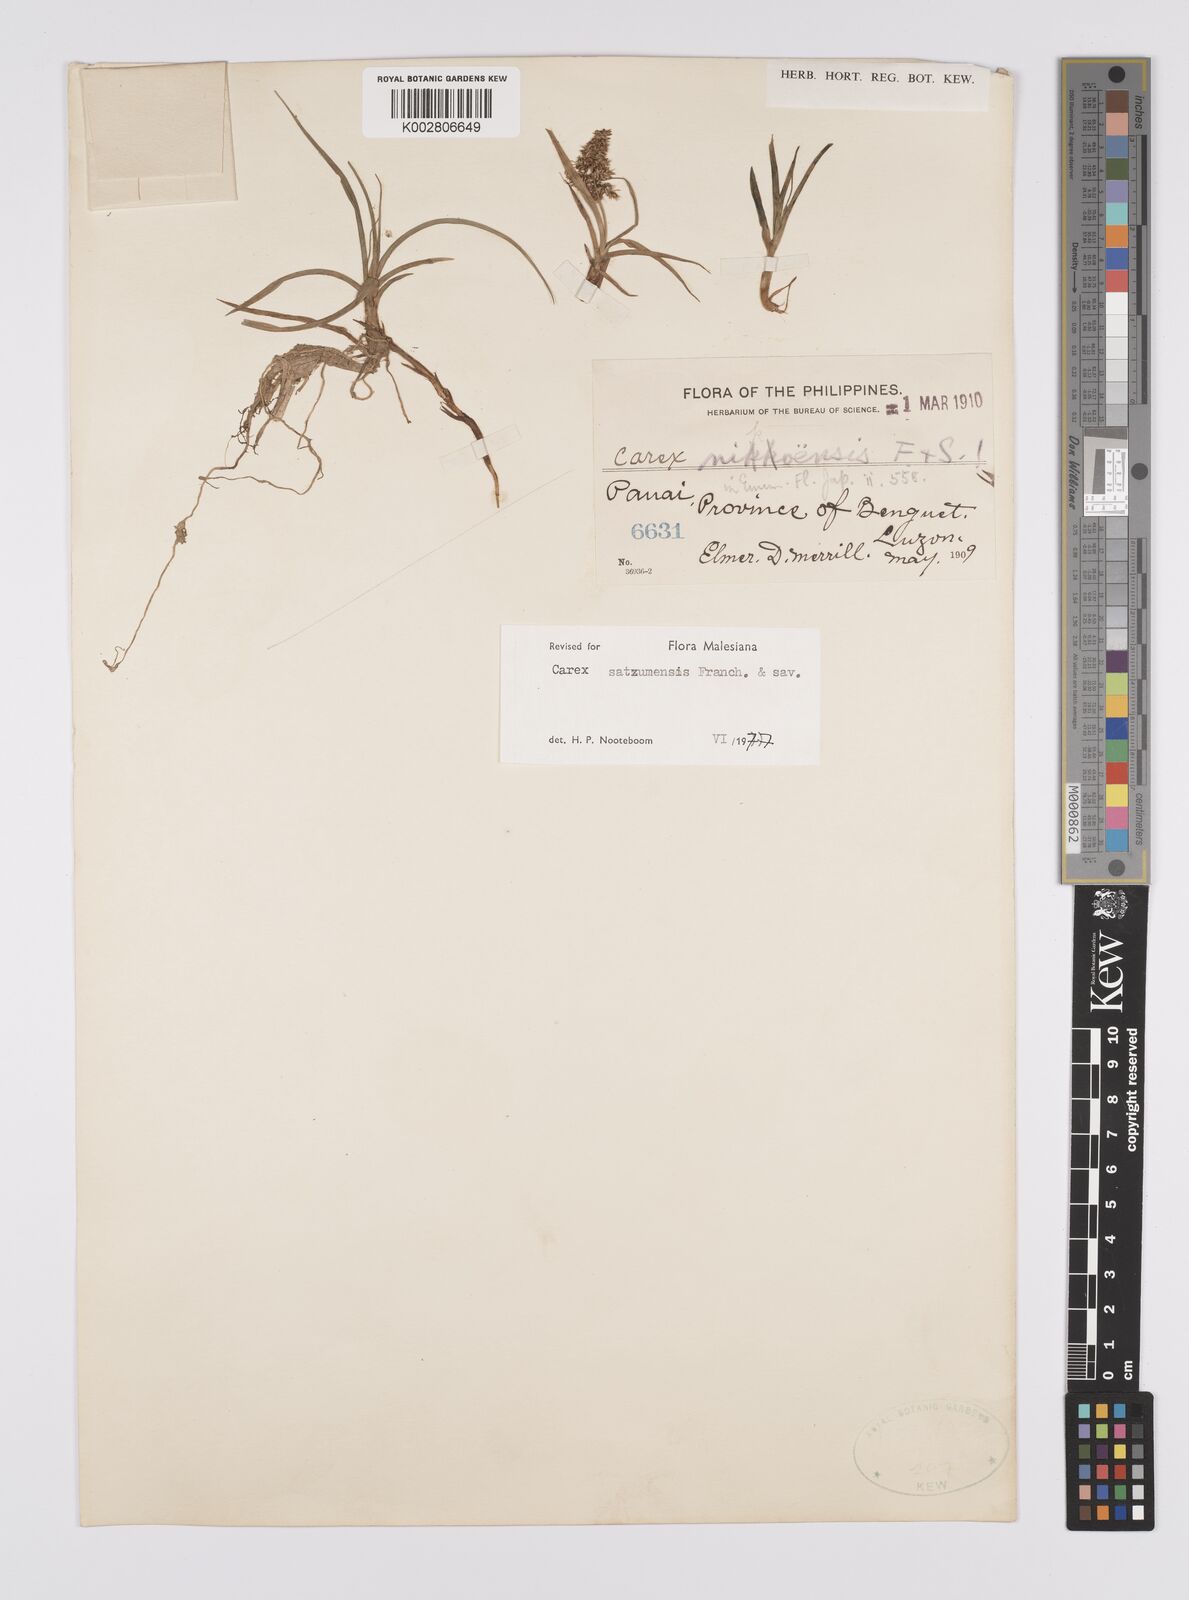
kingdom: Plantae
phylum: Tracheophyta
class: Liliopsida
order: Poales
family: Cyperaceae
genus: Carex
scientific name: Carex satsumensis
